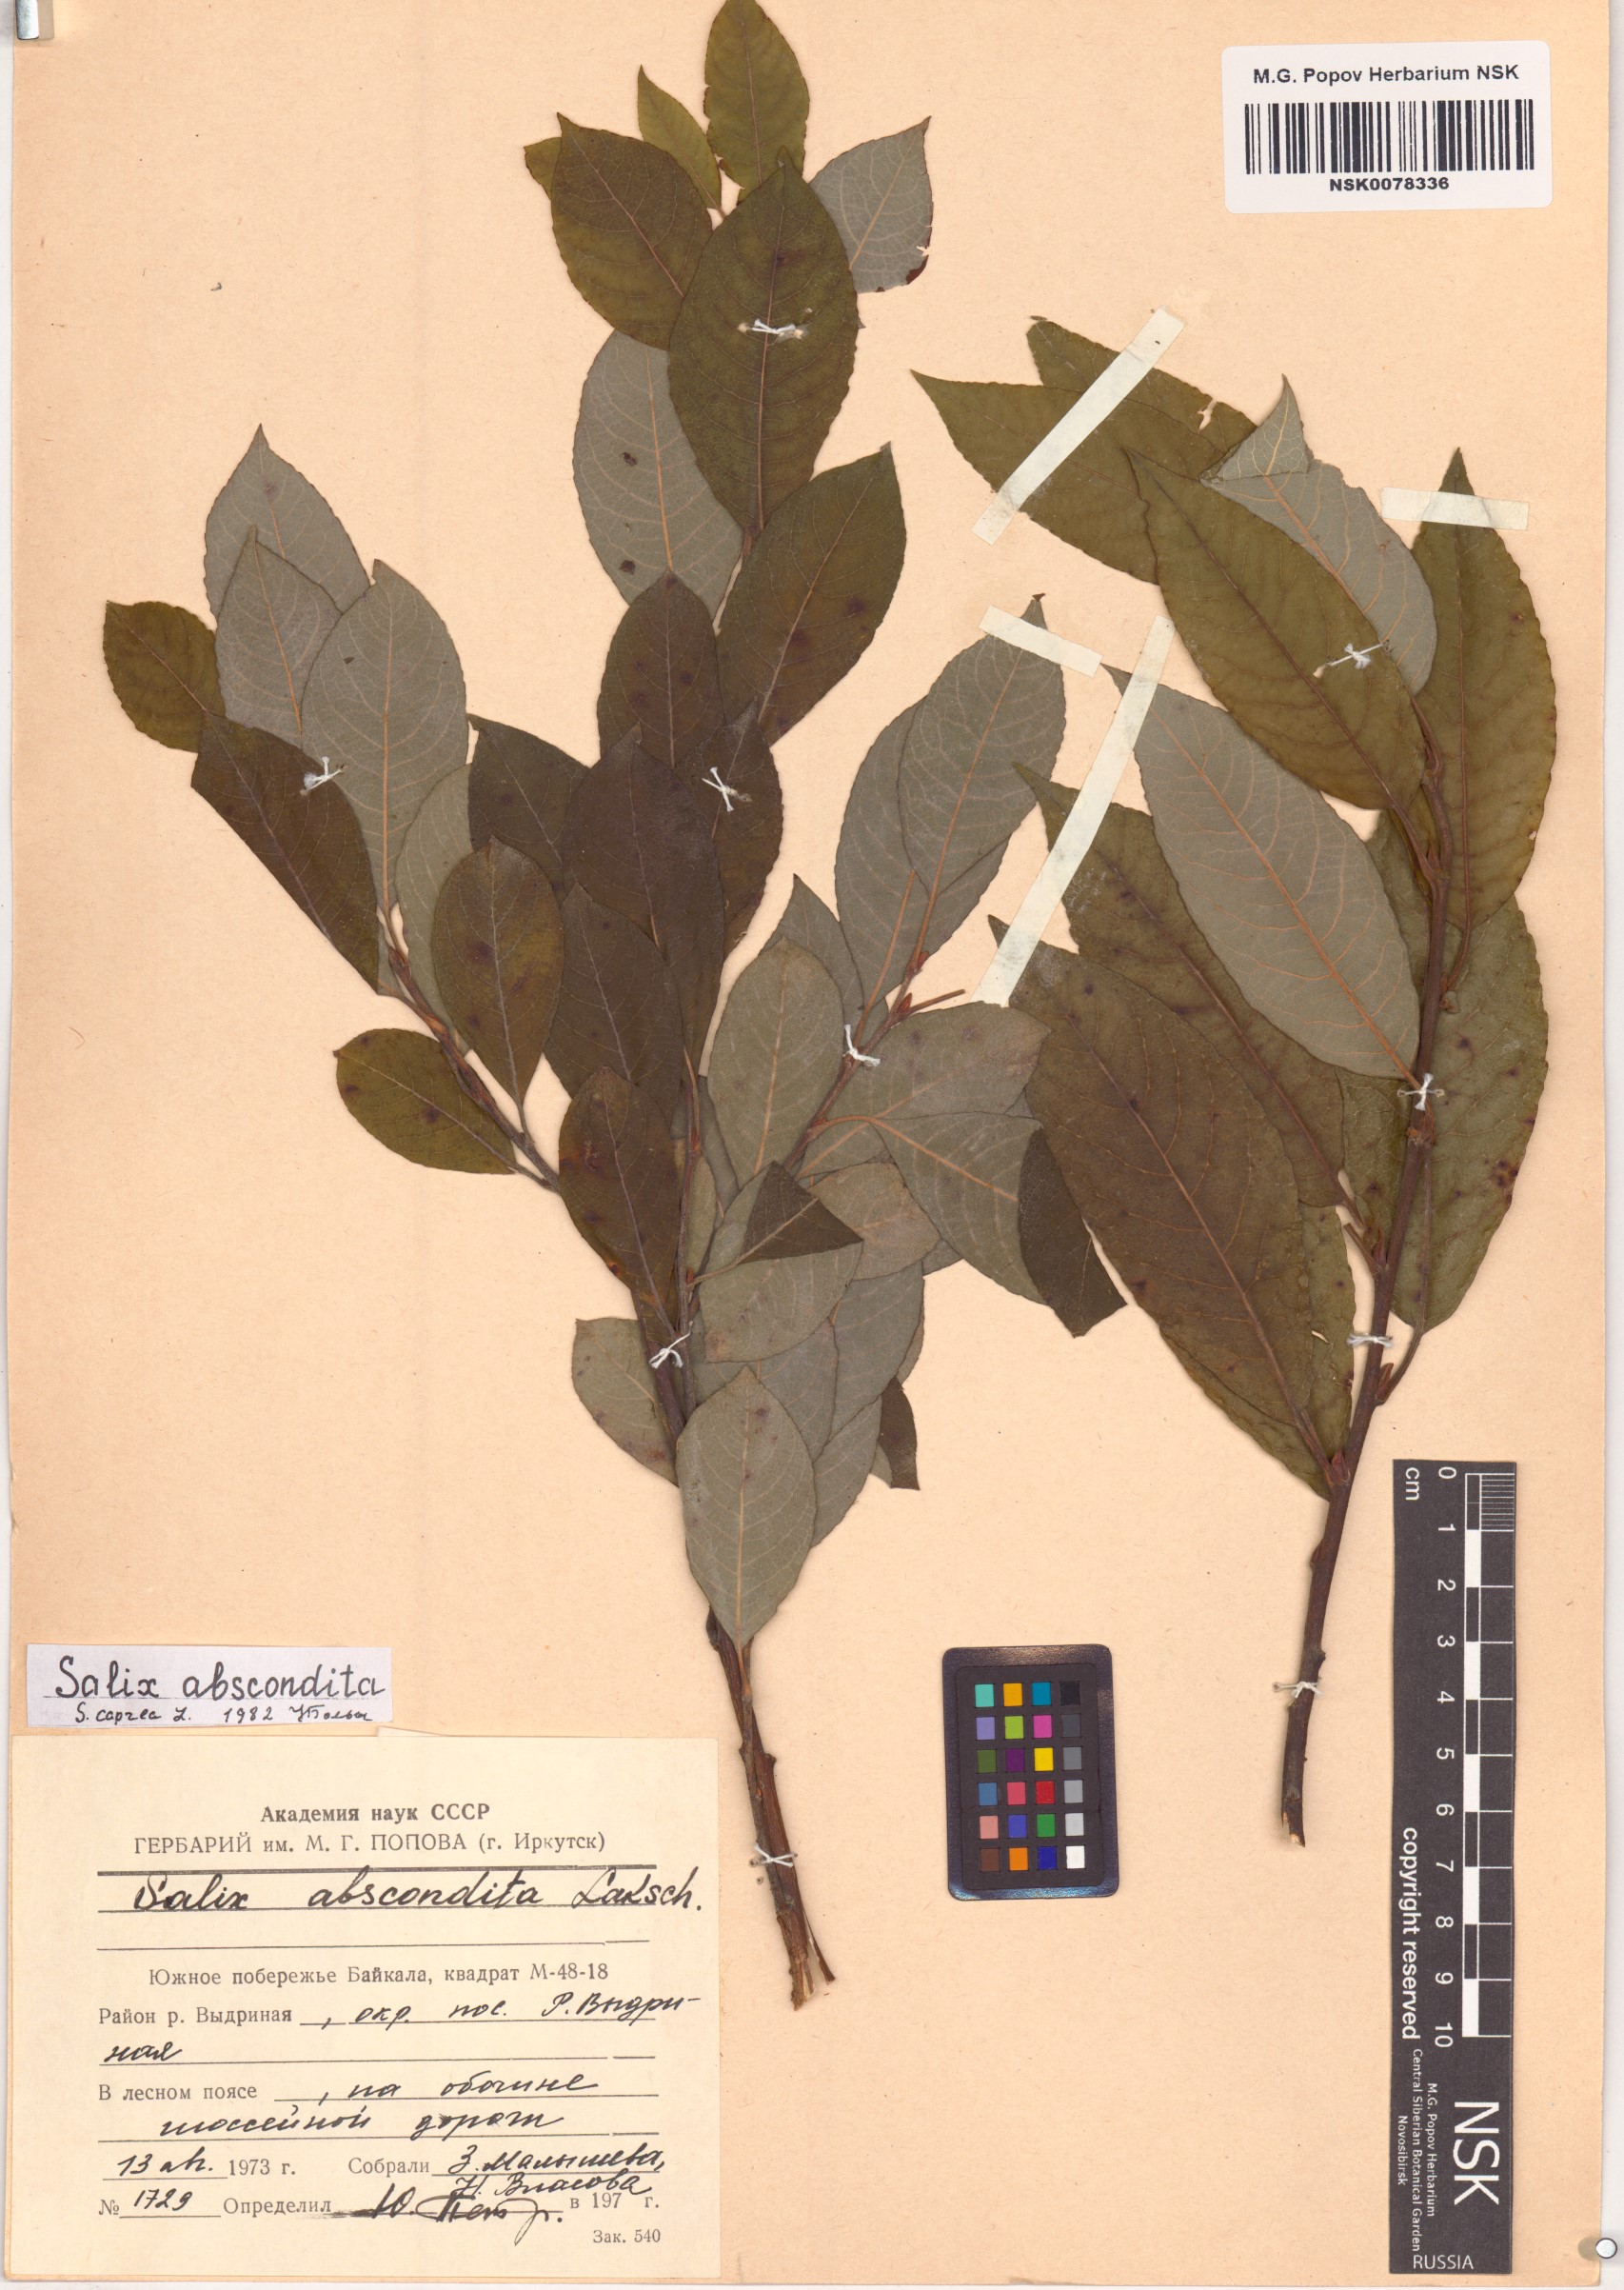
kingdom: Plantae
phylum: Tracheophyta
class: Magnoliopsida
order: Malpighiales
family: Salicaceae
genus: Salix
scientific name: Salix caprea
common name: Goat willow
